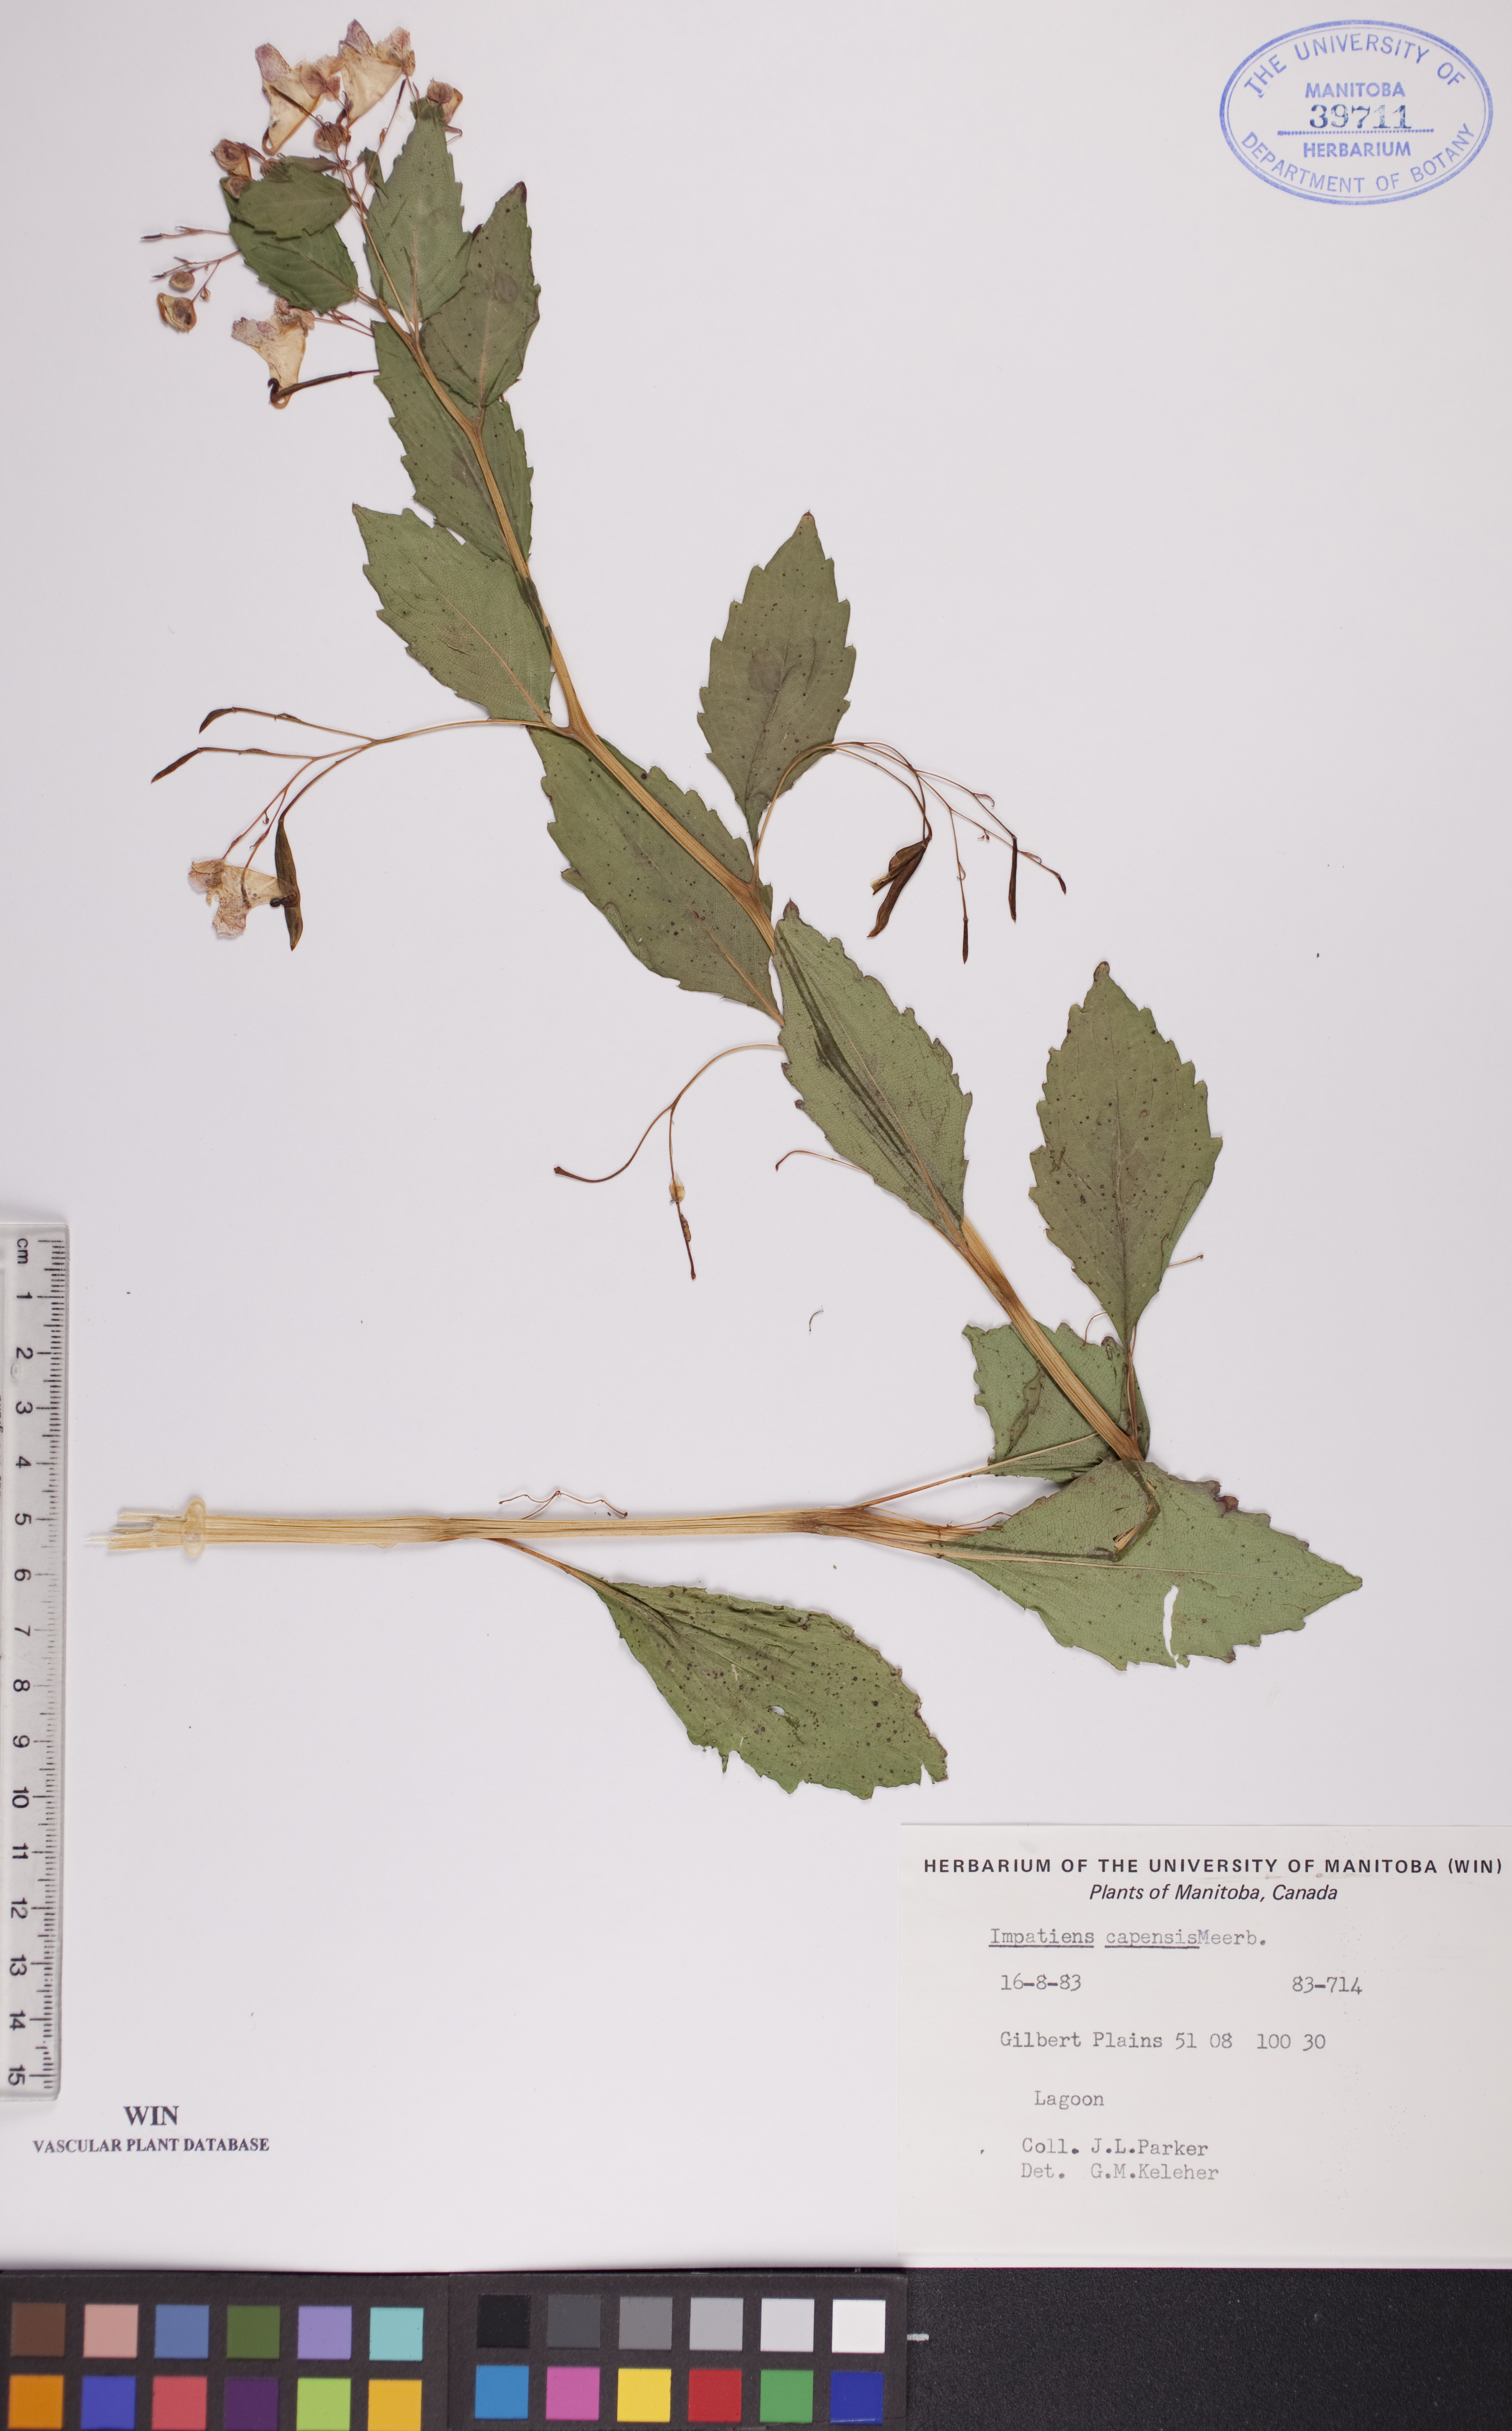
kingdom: Plantae
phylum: Tracheophyta
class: Magnoliopsida
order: Ericales
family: Balsaminaceae
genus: Impatiens
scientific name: Impatiens capensis
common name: Orange balsam
